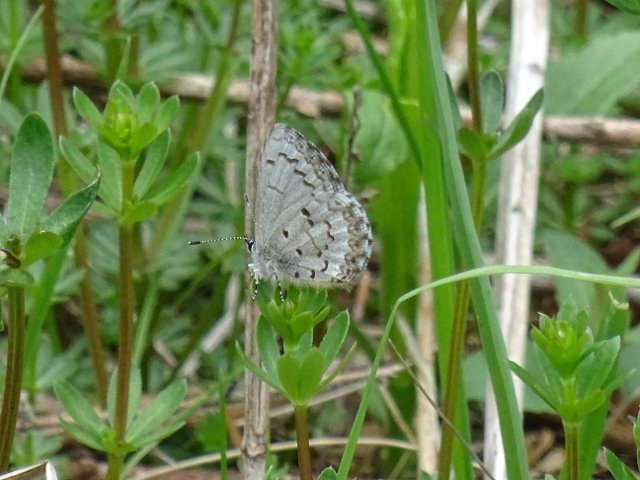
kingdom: Animalia
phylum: Arthropoda
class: Insecta
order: Lepidoptera
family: Lycaenidae
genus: Glaucopsyche
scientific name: Glaucopsyche lygdamus
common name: Silvery Blue
